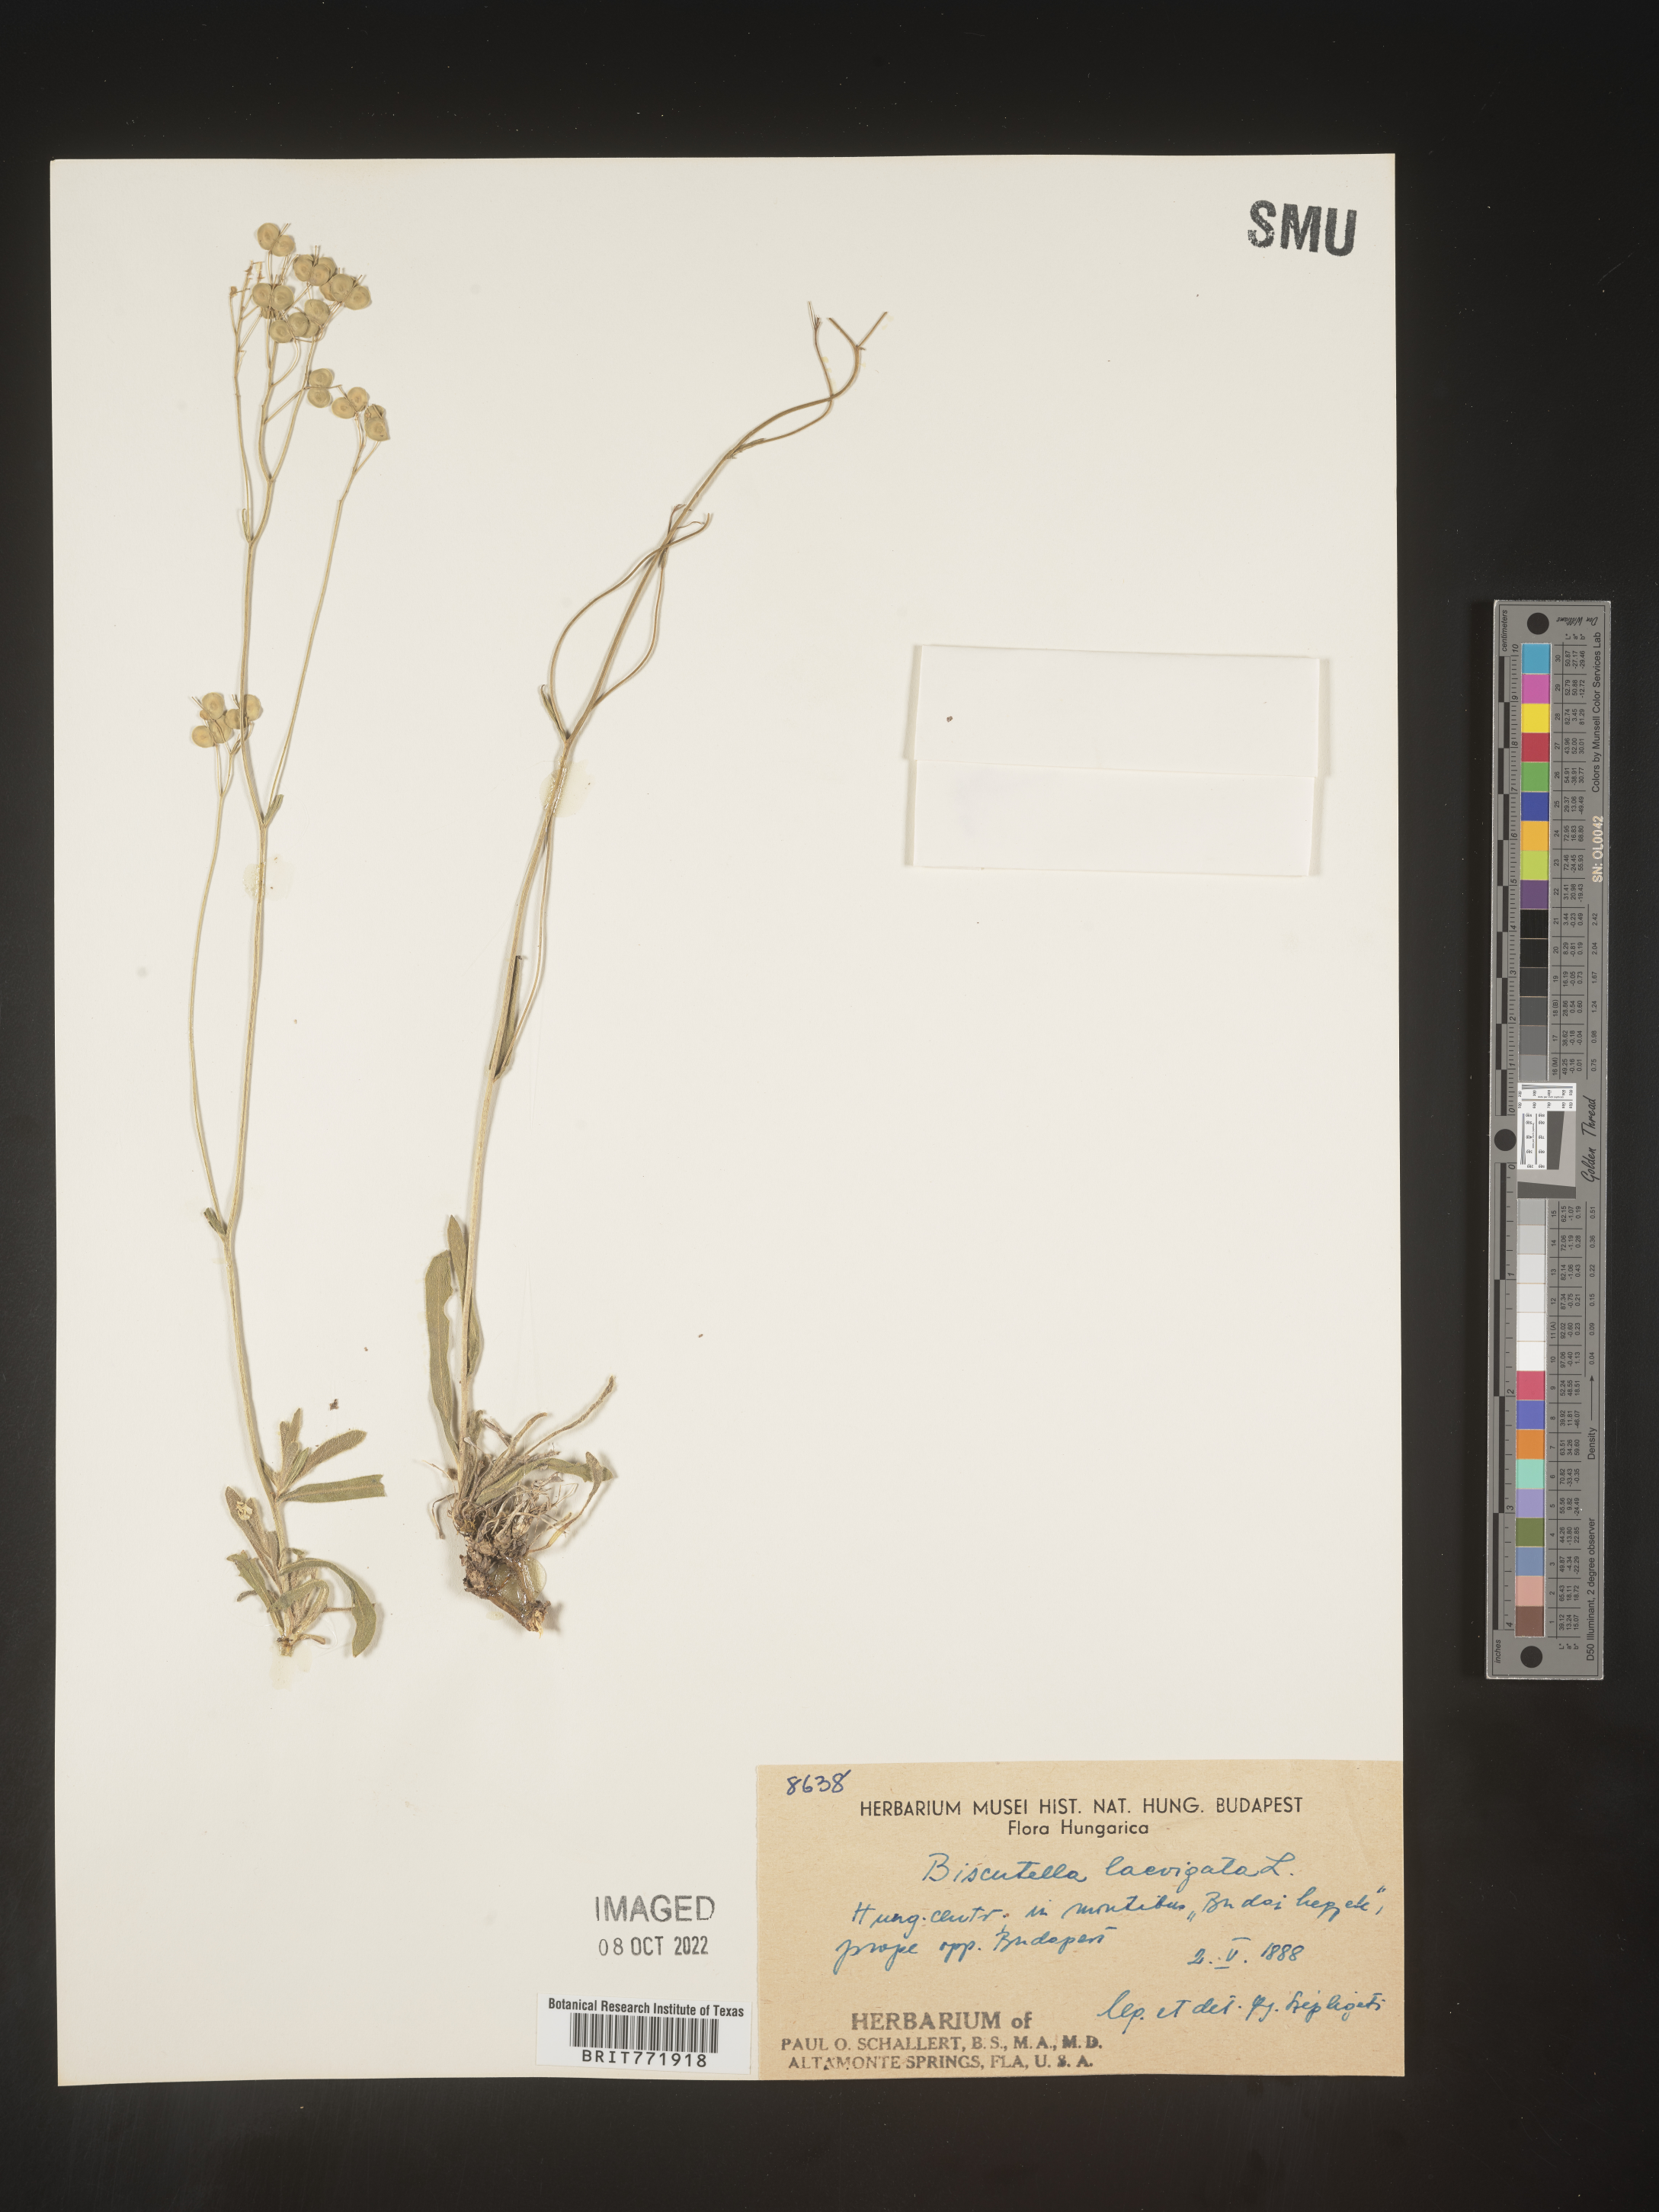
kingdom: Plantae
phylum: Tracheophyta
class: Magnoliopsida
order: Brassicales
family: Brassicaceae
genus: Biscutella
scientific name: Biscutella
